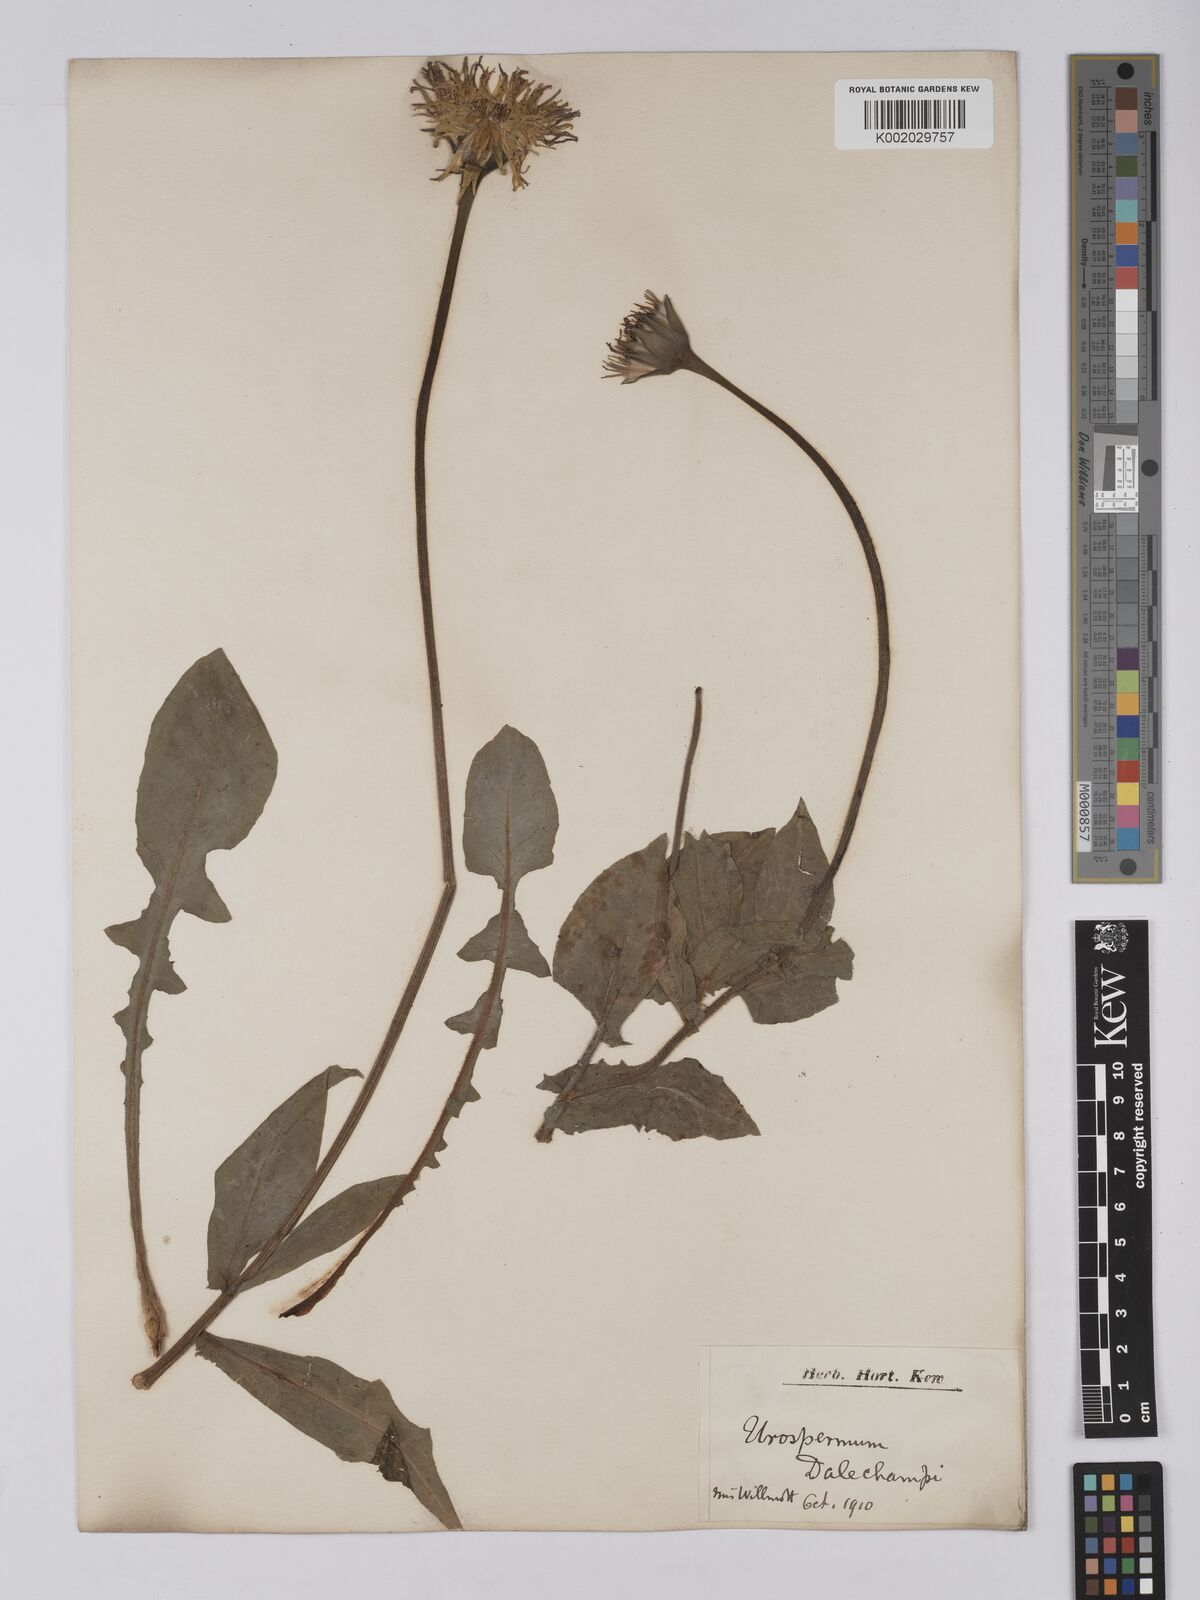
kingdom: Plantae
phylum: Tracheophyta
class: Magnoliopsida
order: Asterales
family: Asteraceae
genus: Urospermum
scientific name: Urospermum dalechampii
